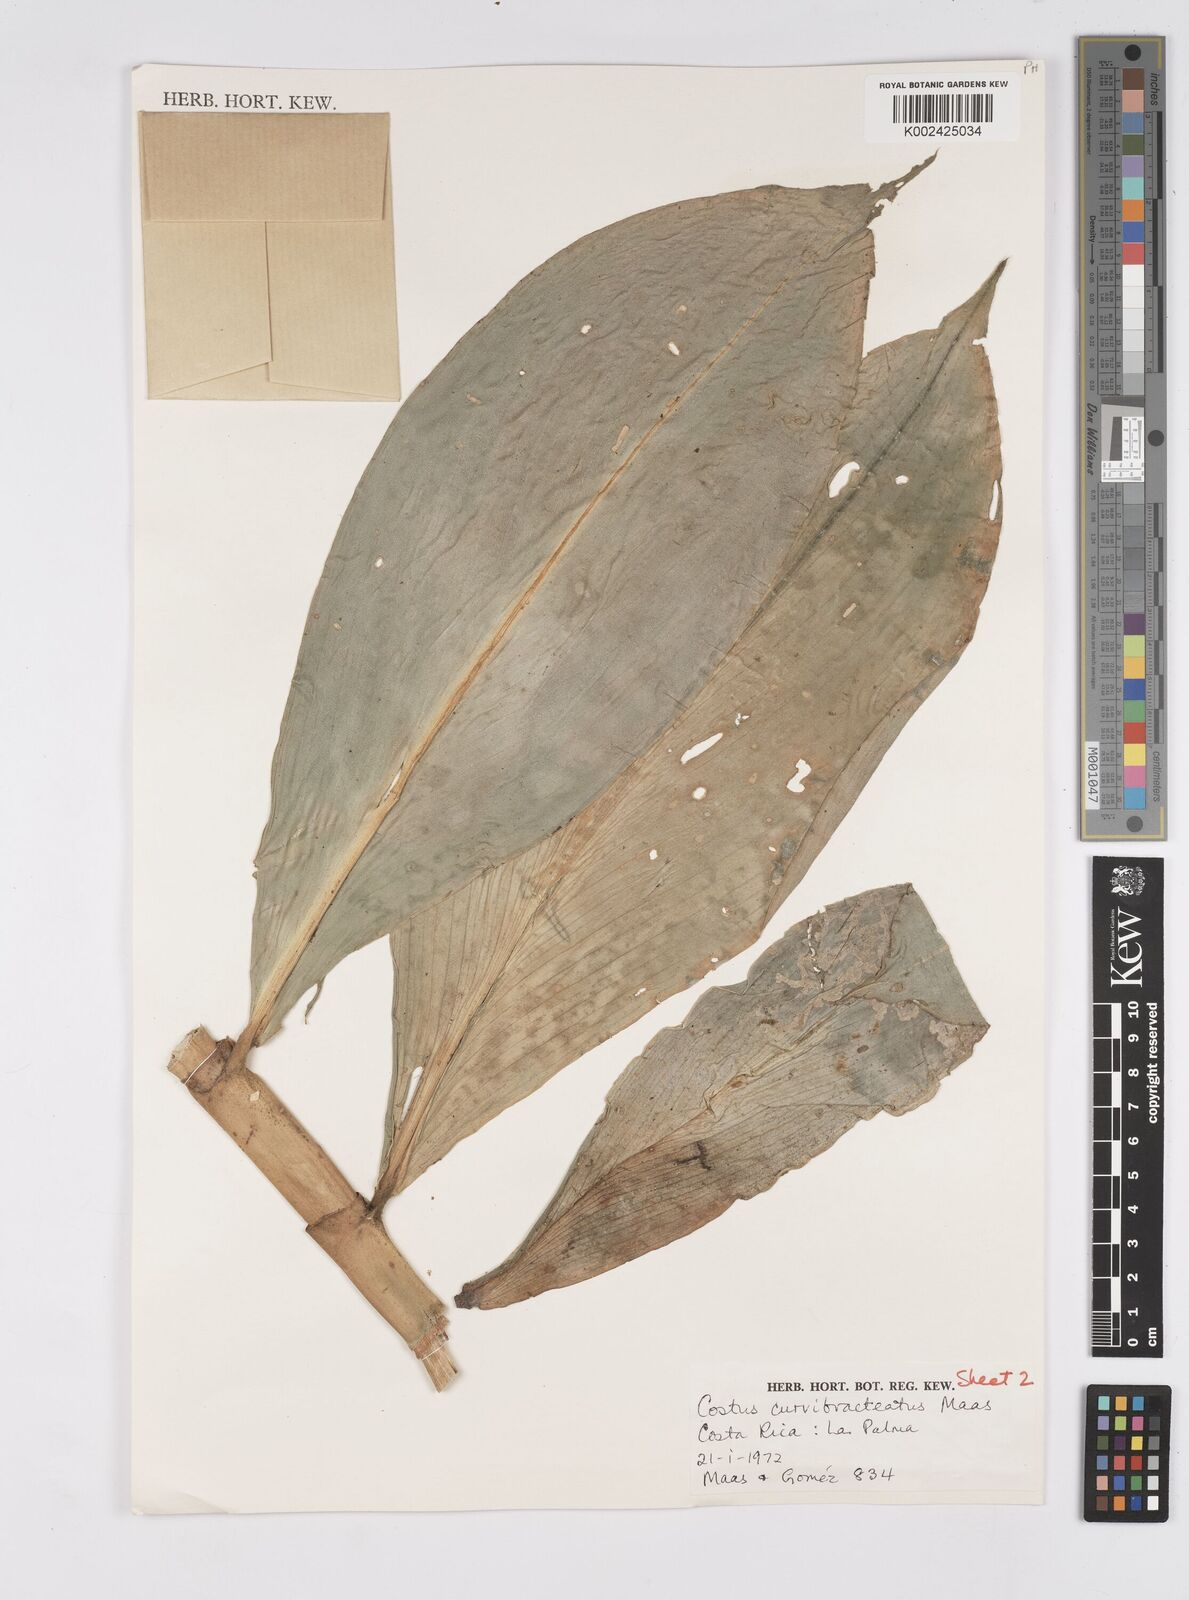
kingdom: Plantae
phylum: Tracheophyta
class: Liliopsida
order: Zingiberales
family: Costaceae
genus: Costus
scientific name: Costus curvibracteatus
